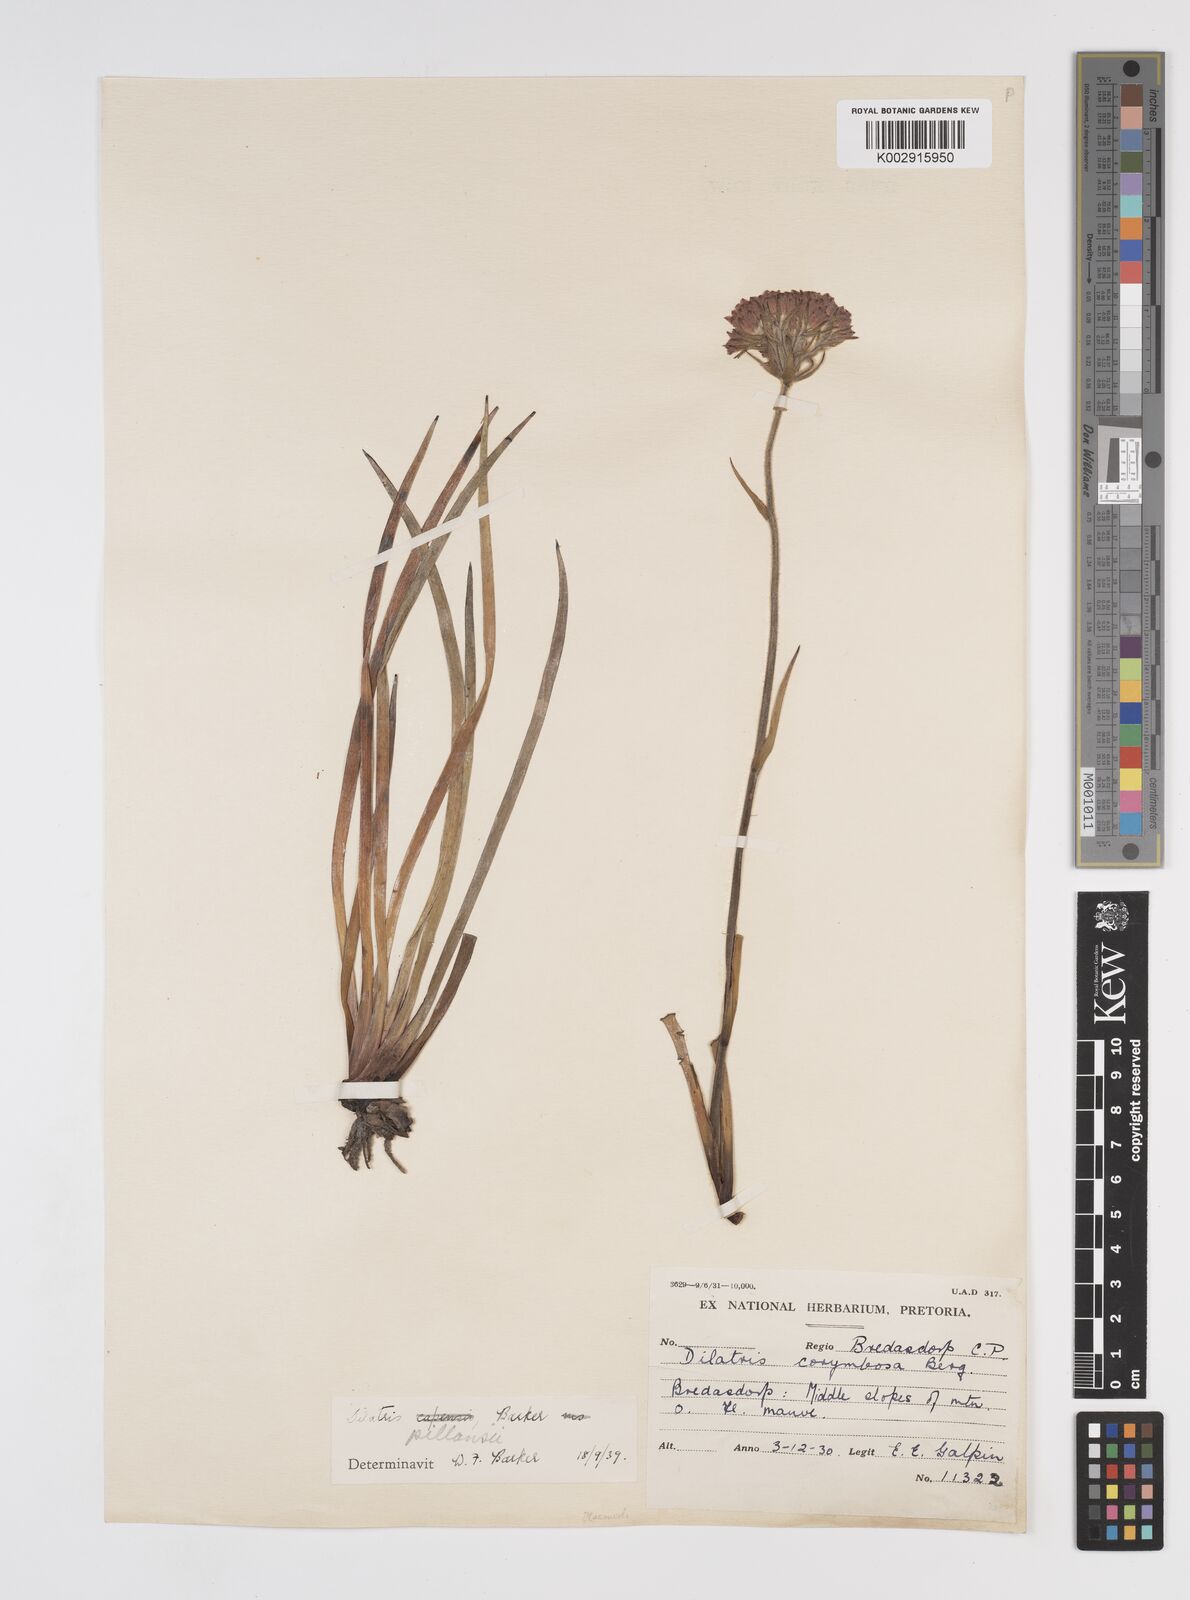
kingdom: Plantae
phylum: Tracheophyta
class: Liliopsida
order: Commelinales
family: Haemodoraceae
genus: Dilatris
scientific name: Dilatris pillansii
